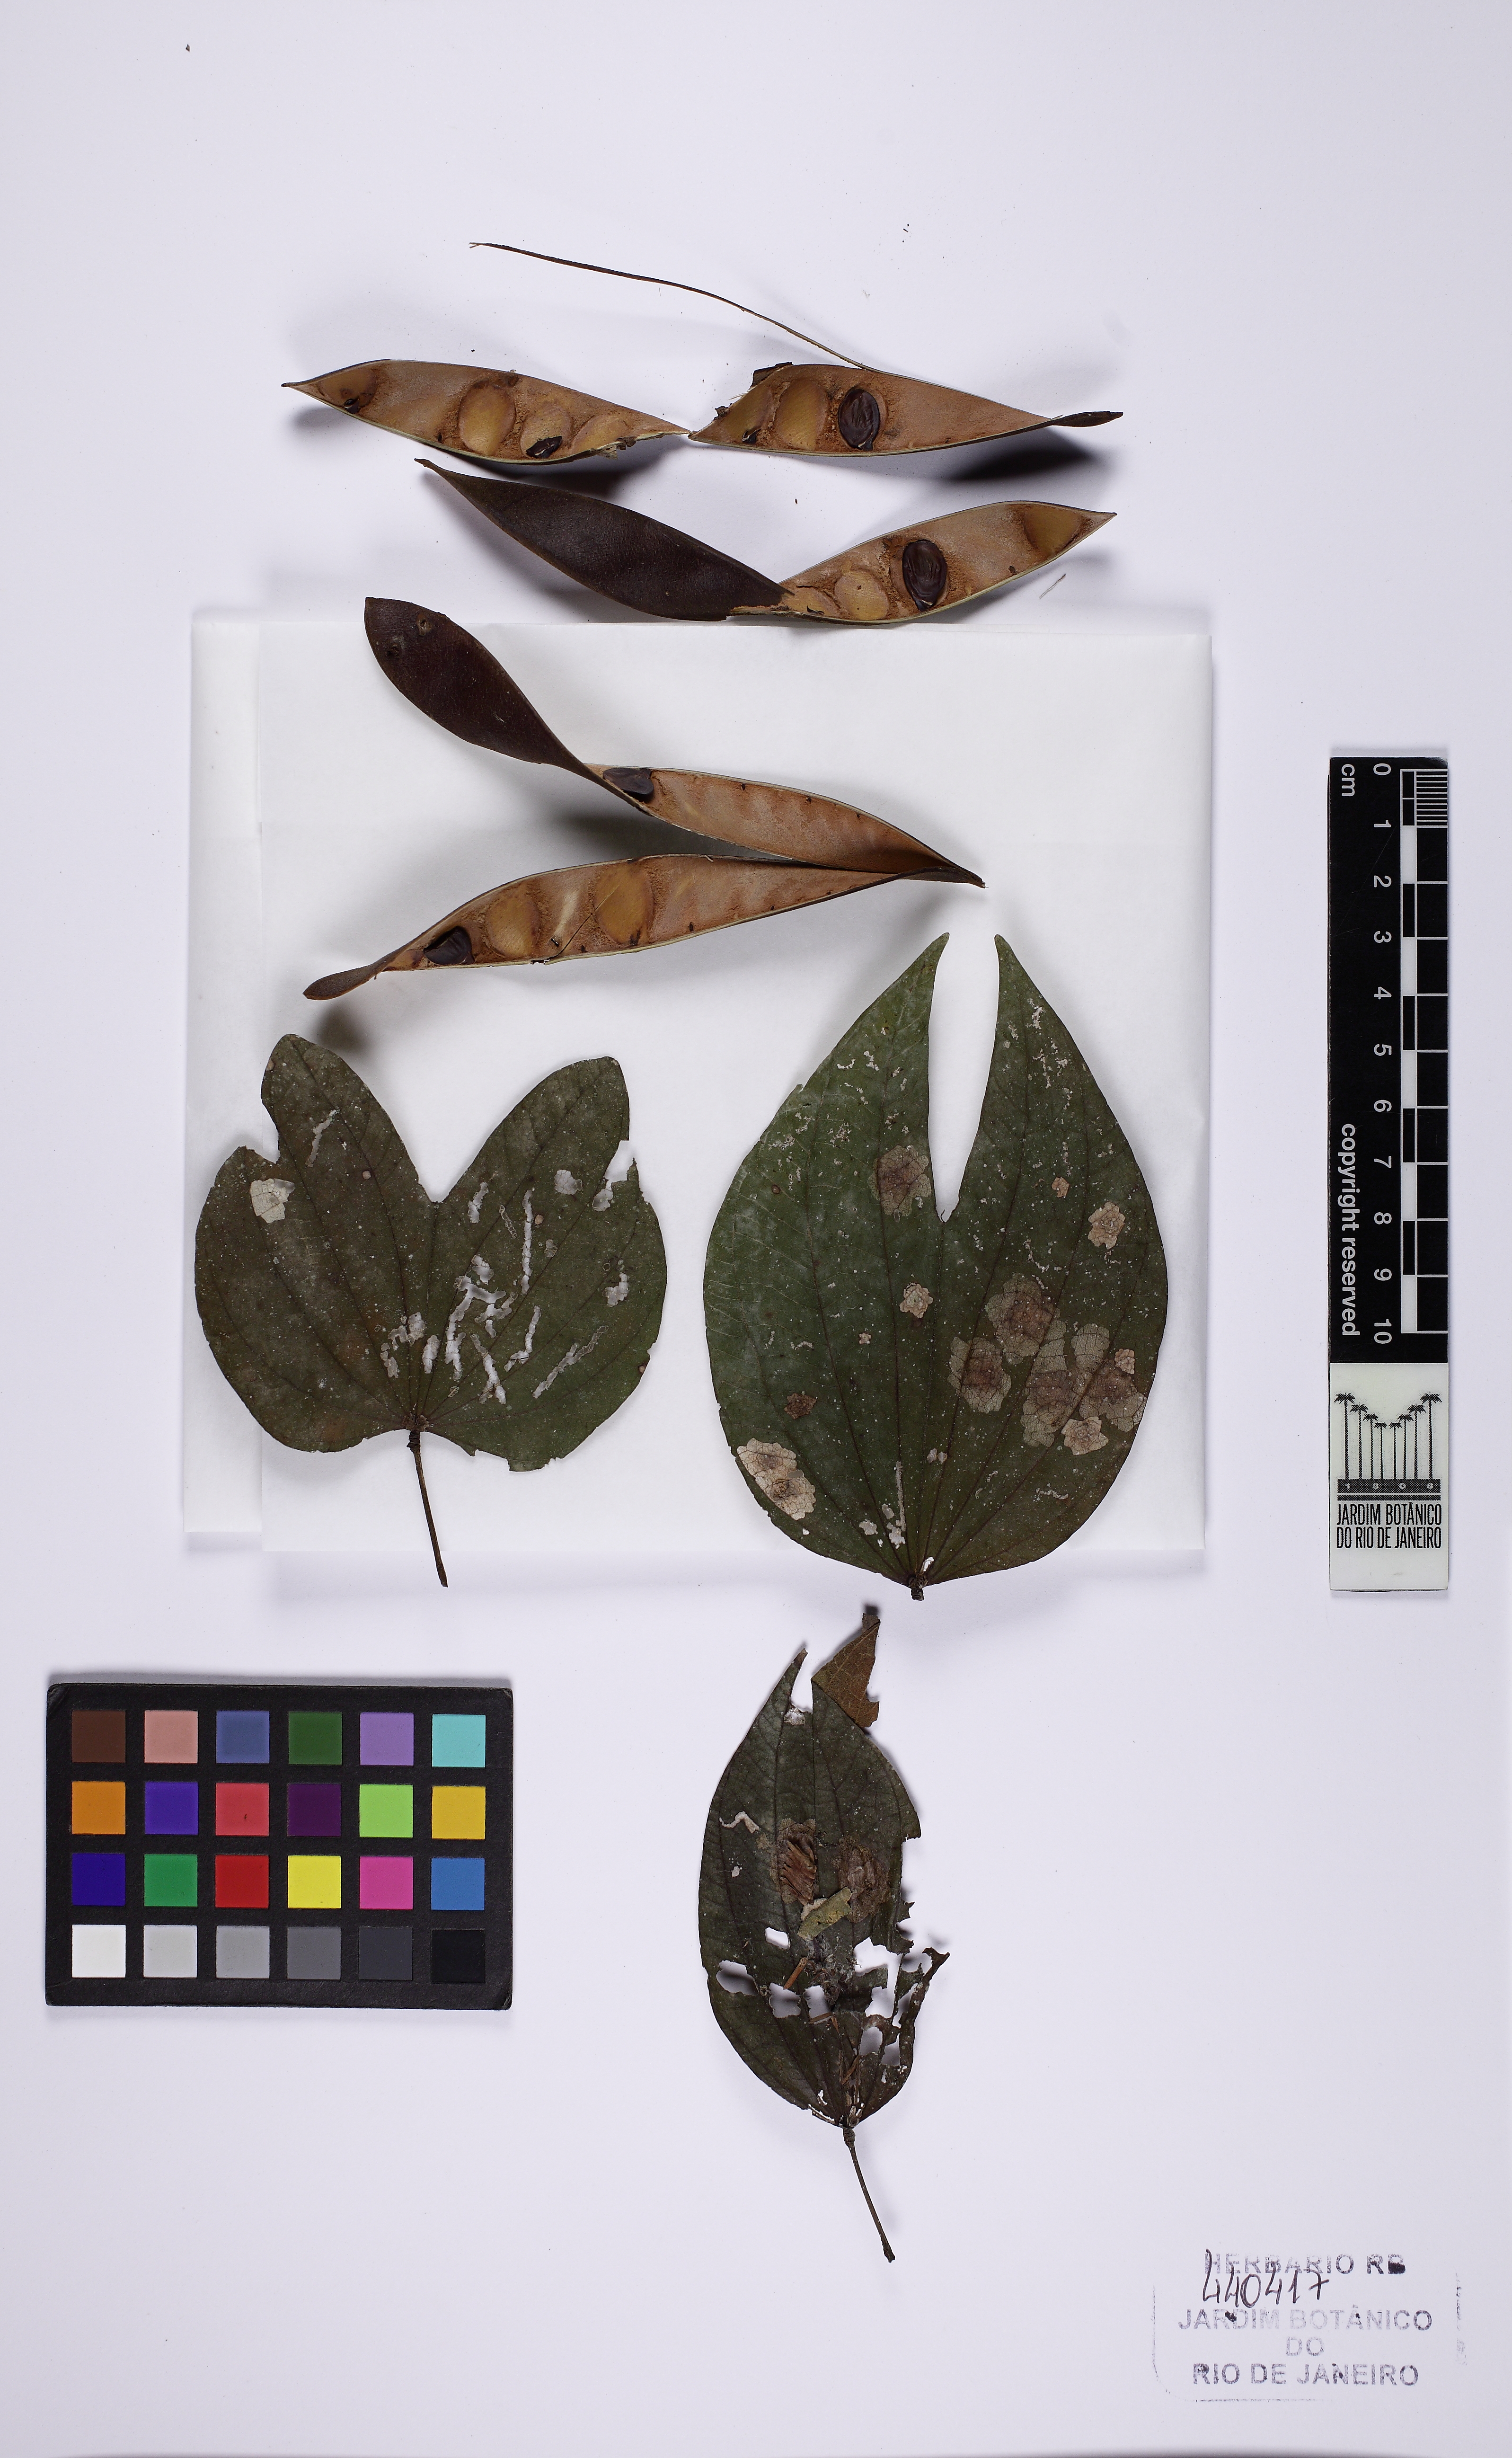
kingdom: Plantae
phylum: Tracheophyta
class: Magnoliopsida
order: Fabales
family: Fabaceae
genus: Bauhinia
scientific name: Bauhinia longifolia
